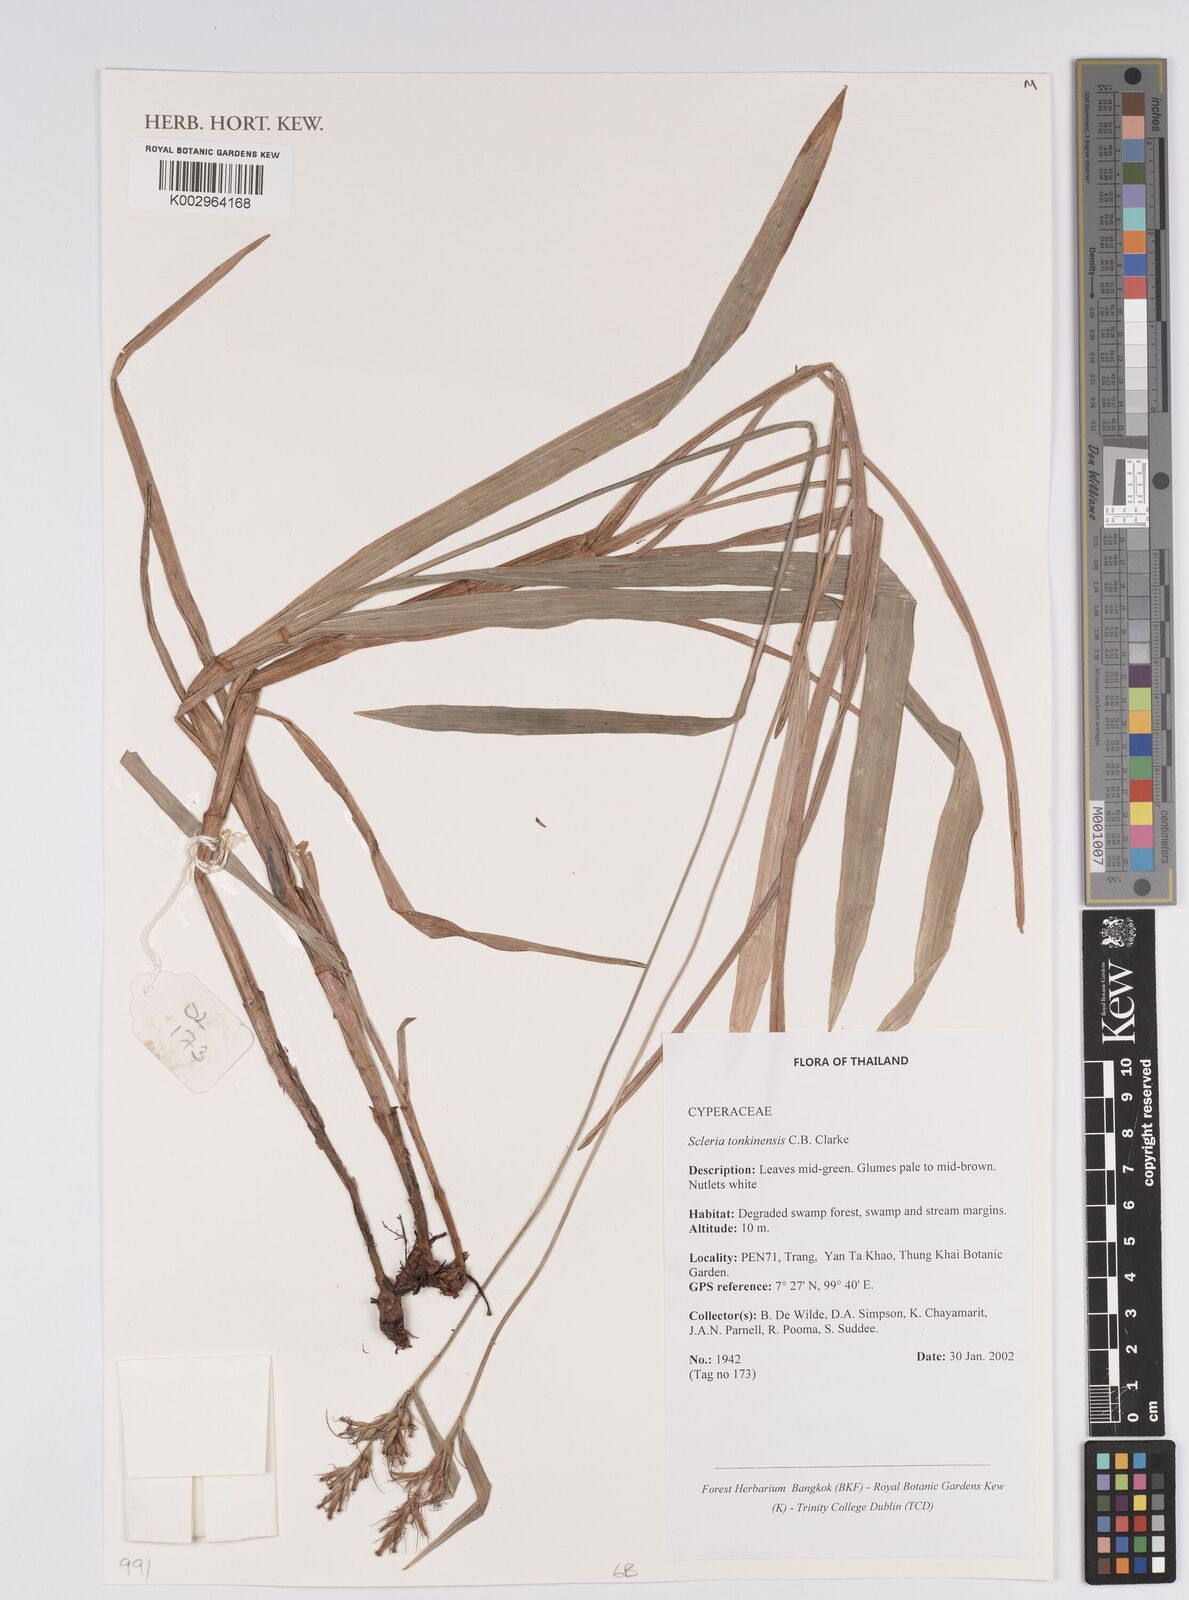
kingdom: Plantae
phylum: Tracheophyta
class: Liliopsida
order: Poales
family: Cyperaceae
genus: Scleria
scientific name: Scleria tonkinensis
